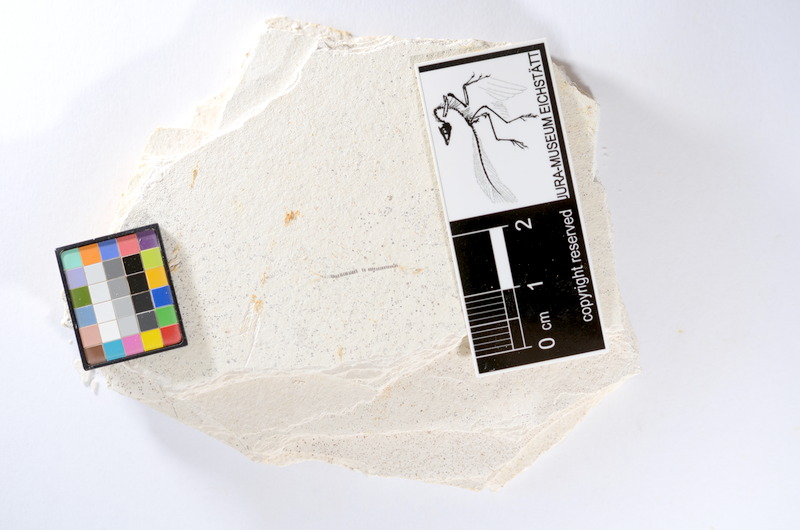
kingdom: Animalia
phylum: Chordata
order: Salmoniformes
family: Orthogonikleithridae
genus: Orthogonikleithrus
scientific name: Orthogonikleithrus hoelli
